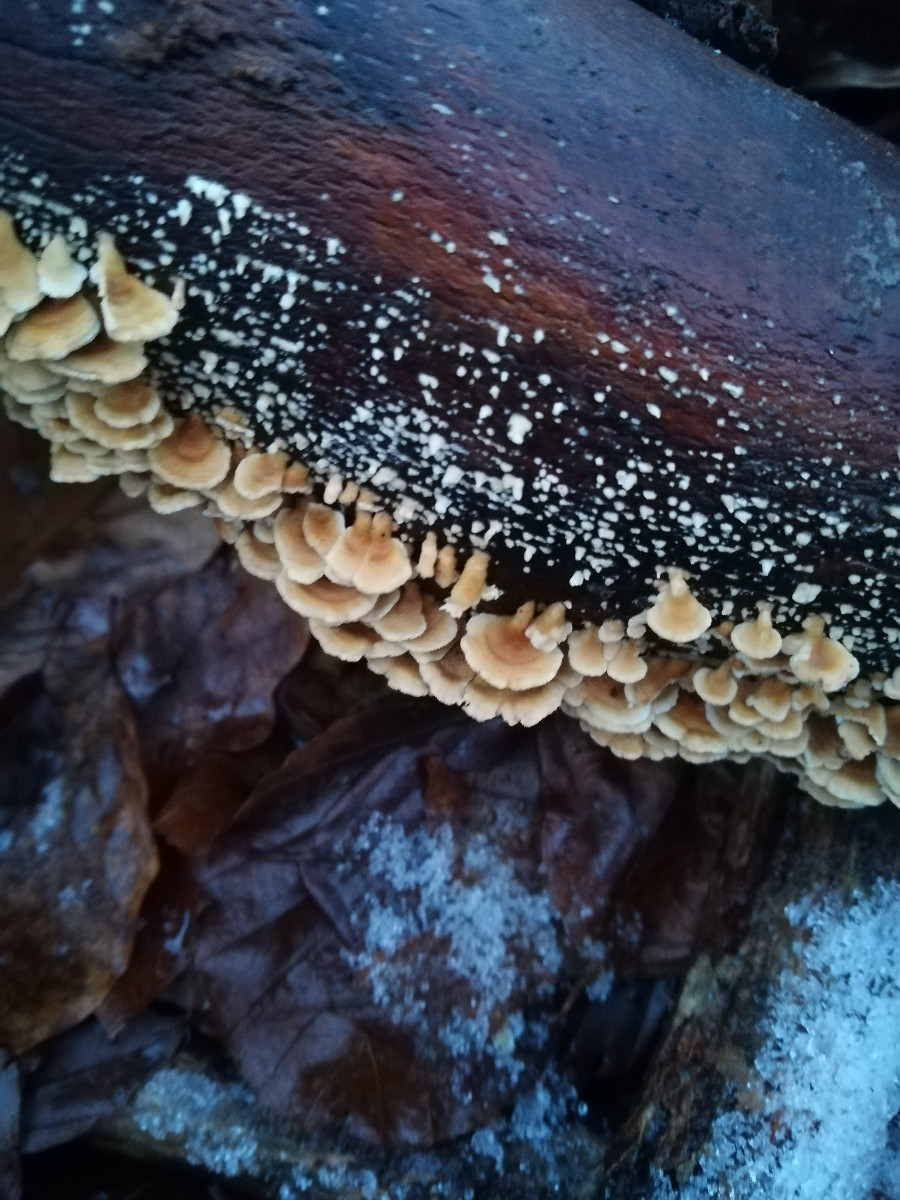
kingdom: Fungi
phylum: Basidiomycota
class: Agaricomycetes
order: Amylocorticiales
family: Amylocorticiaceae
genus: Plicaturopsis
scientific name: Plicaturopsis crispa
